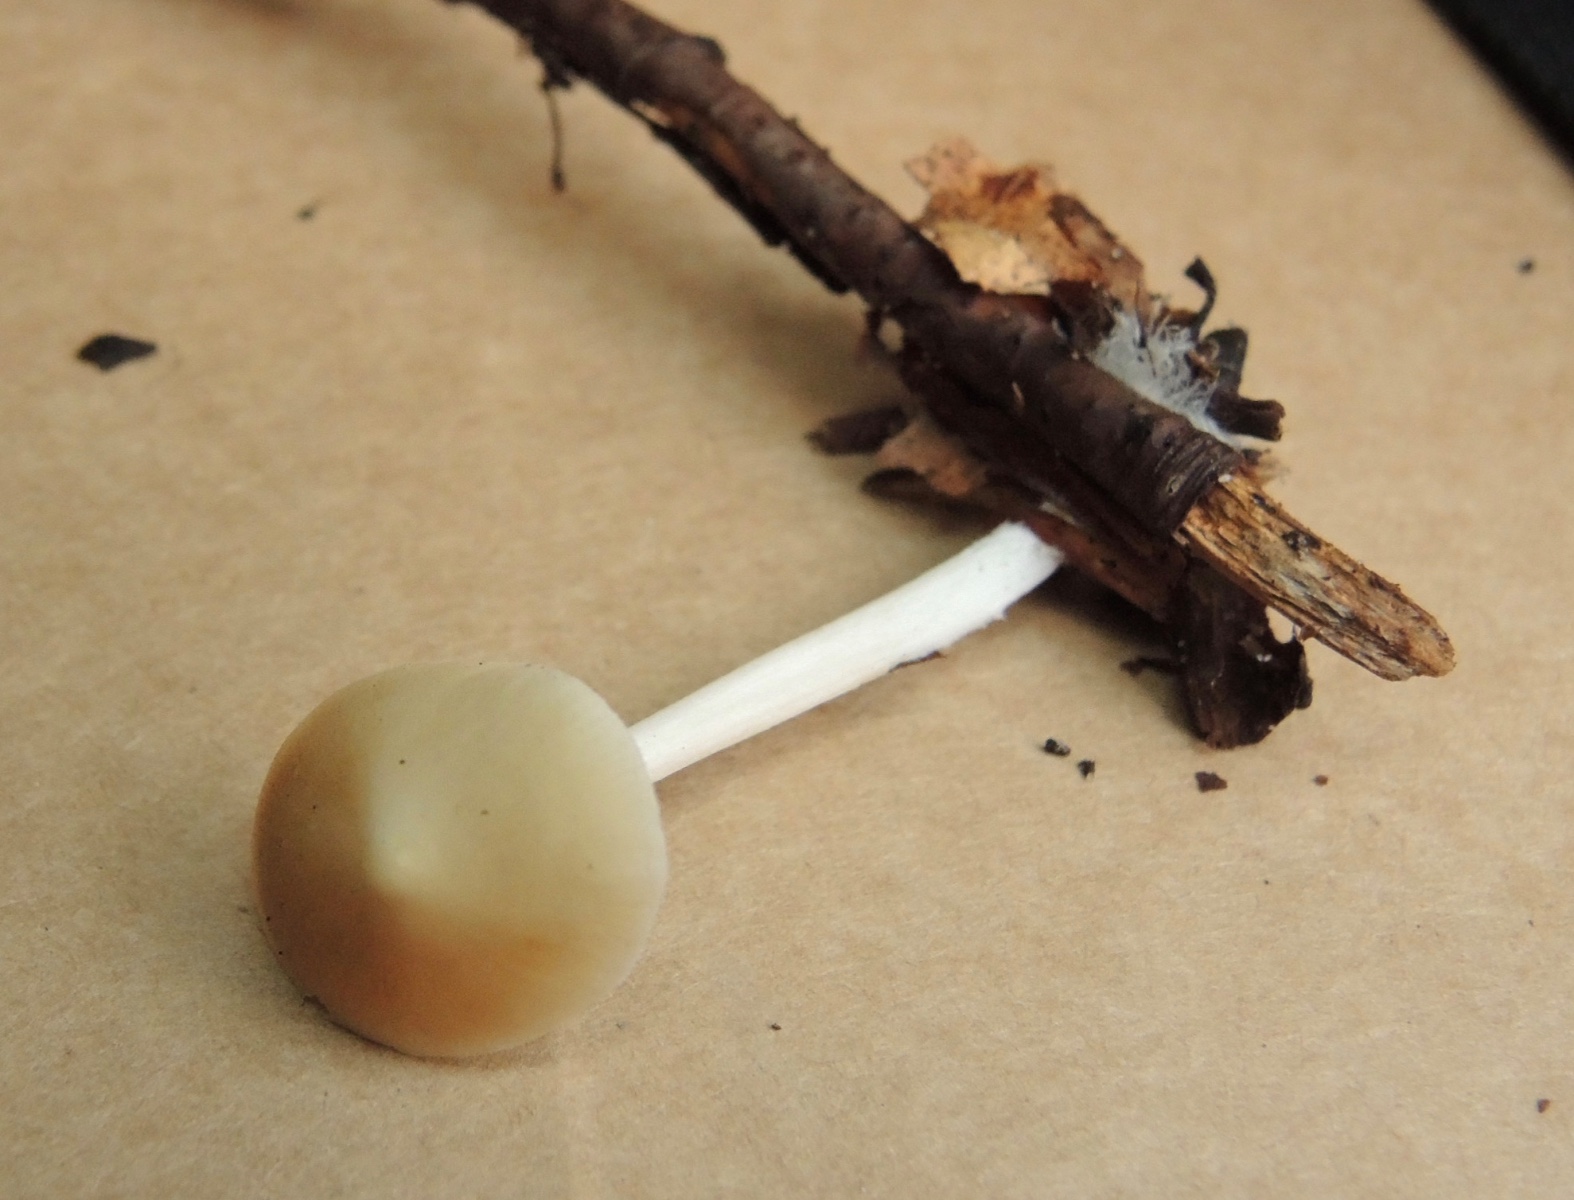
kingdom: Fungi
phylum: Basidiomycota
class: Agaricomycetes
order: Agaricales
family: Porotheleaceae
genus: Hydropodia
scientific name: Hydropodia subalpina
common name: vår-fnugfod
